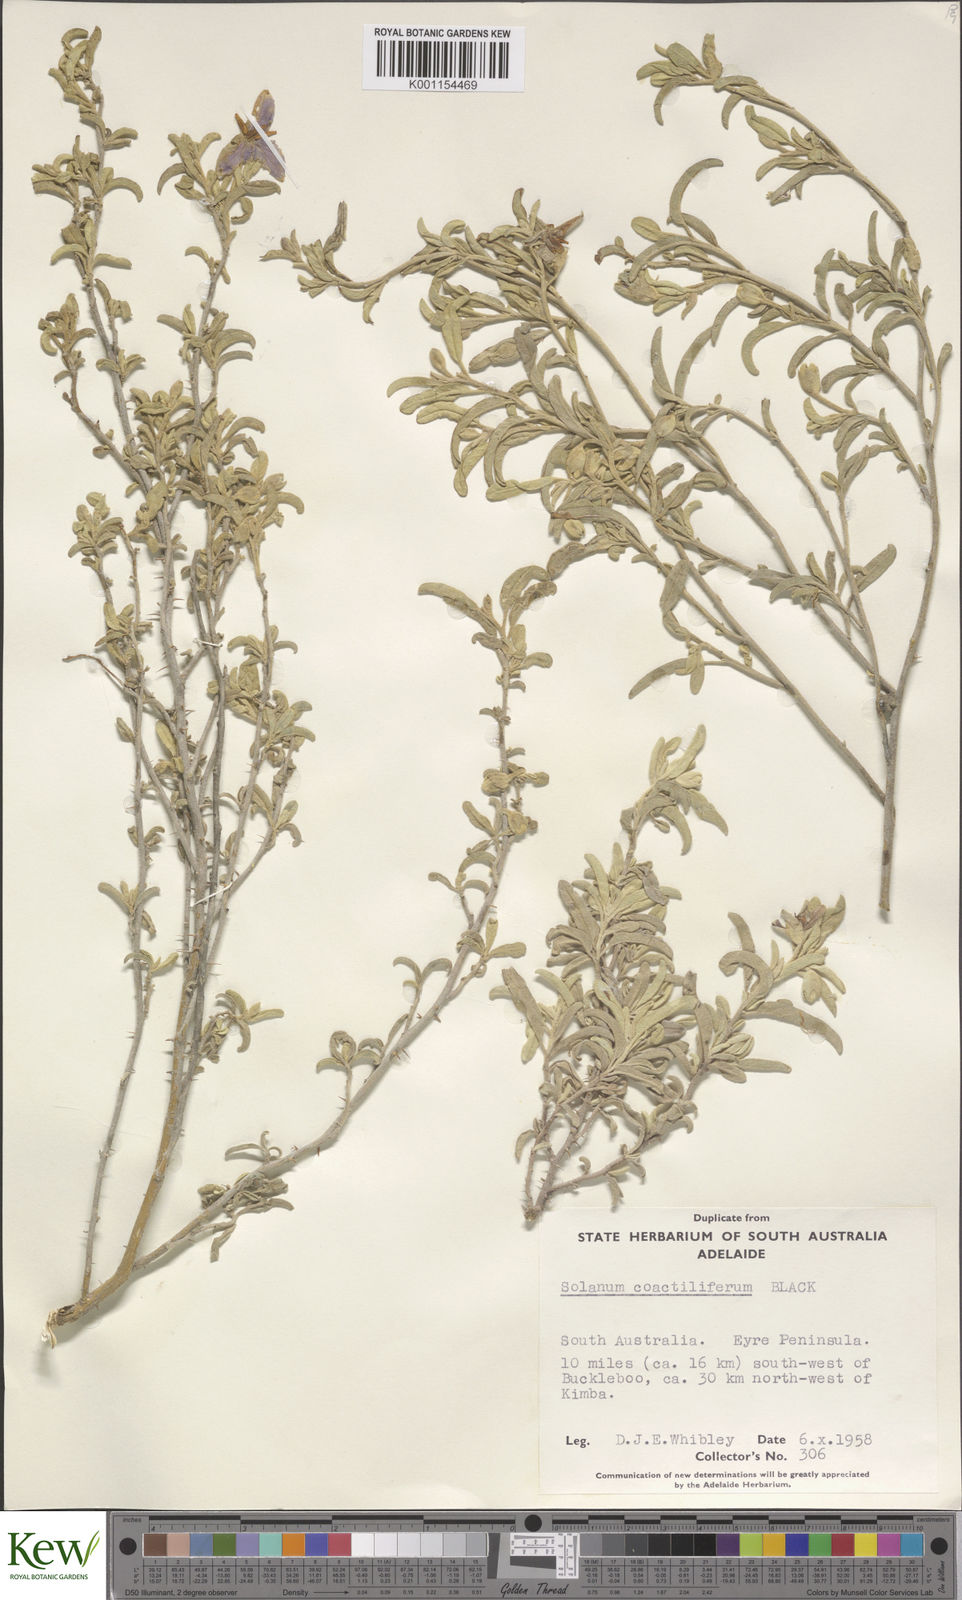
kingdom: Plantae
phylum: Tracheophyta
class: Magnoliopsida
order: Solanales
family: Solanaceae
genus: Solanum
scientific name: Solanum
